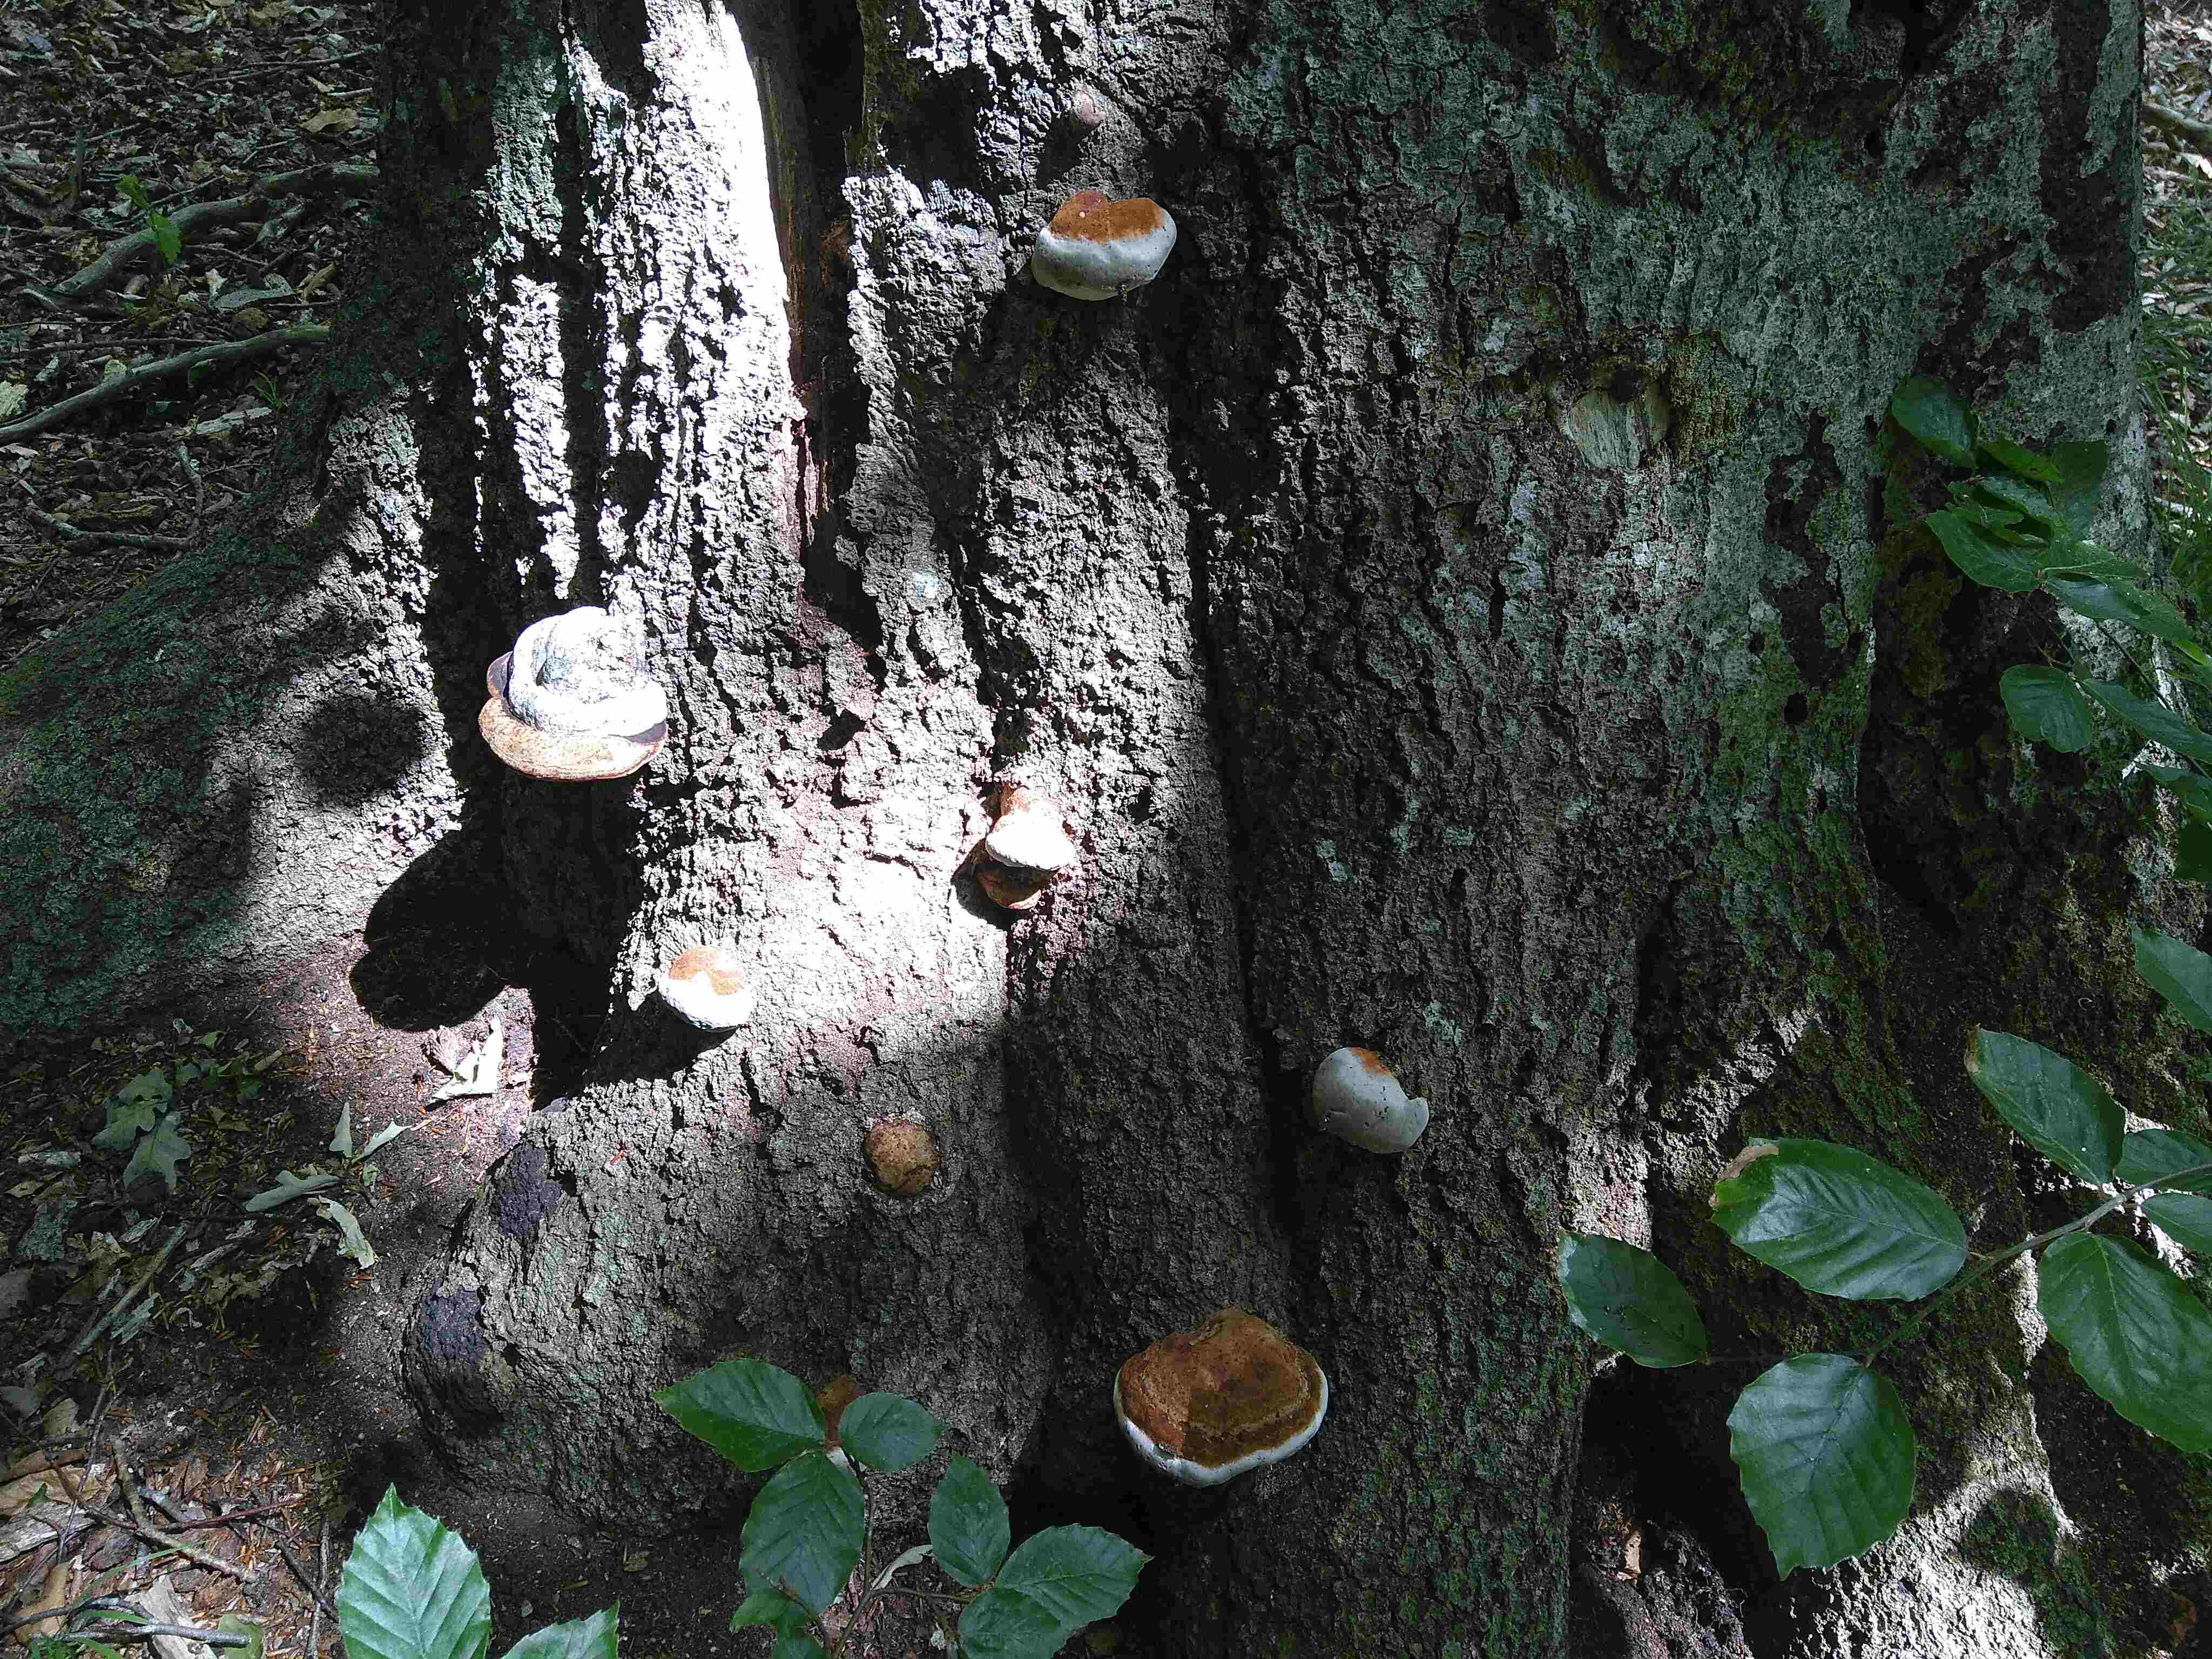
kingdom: Fungi
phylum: Basidiomycota
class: Agaricomycetes
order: Polyporales
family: Polyporaceae
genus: Fomes
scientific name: Fomes fomentarius
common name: tøndersvamp
